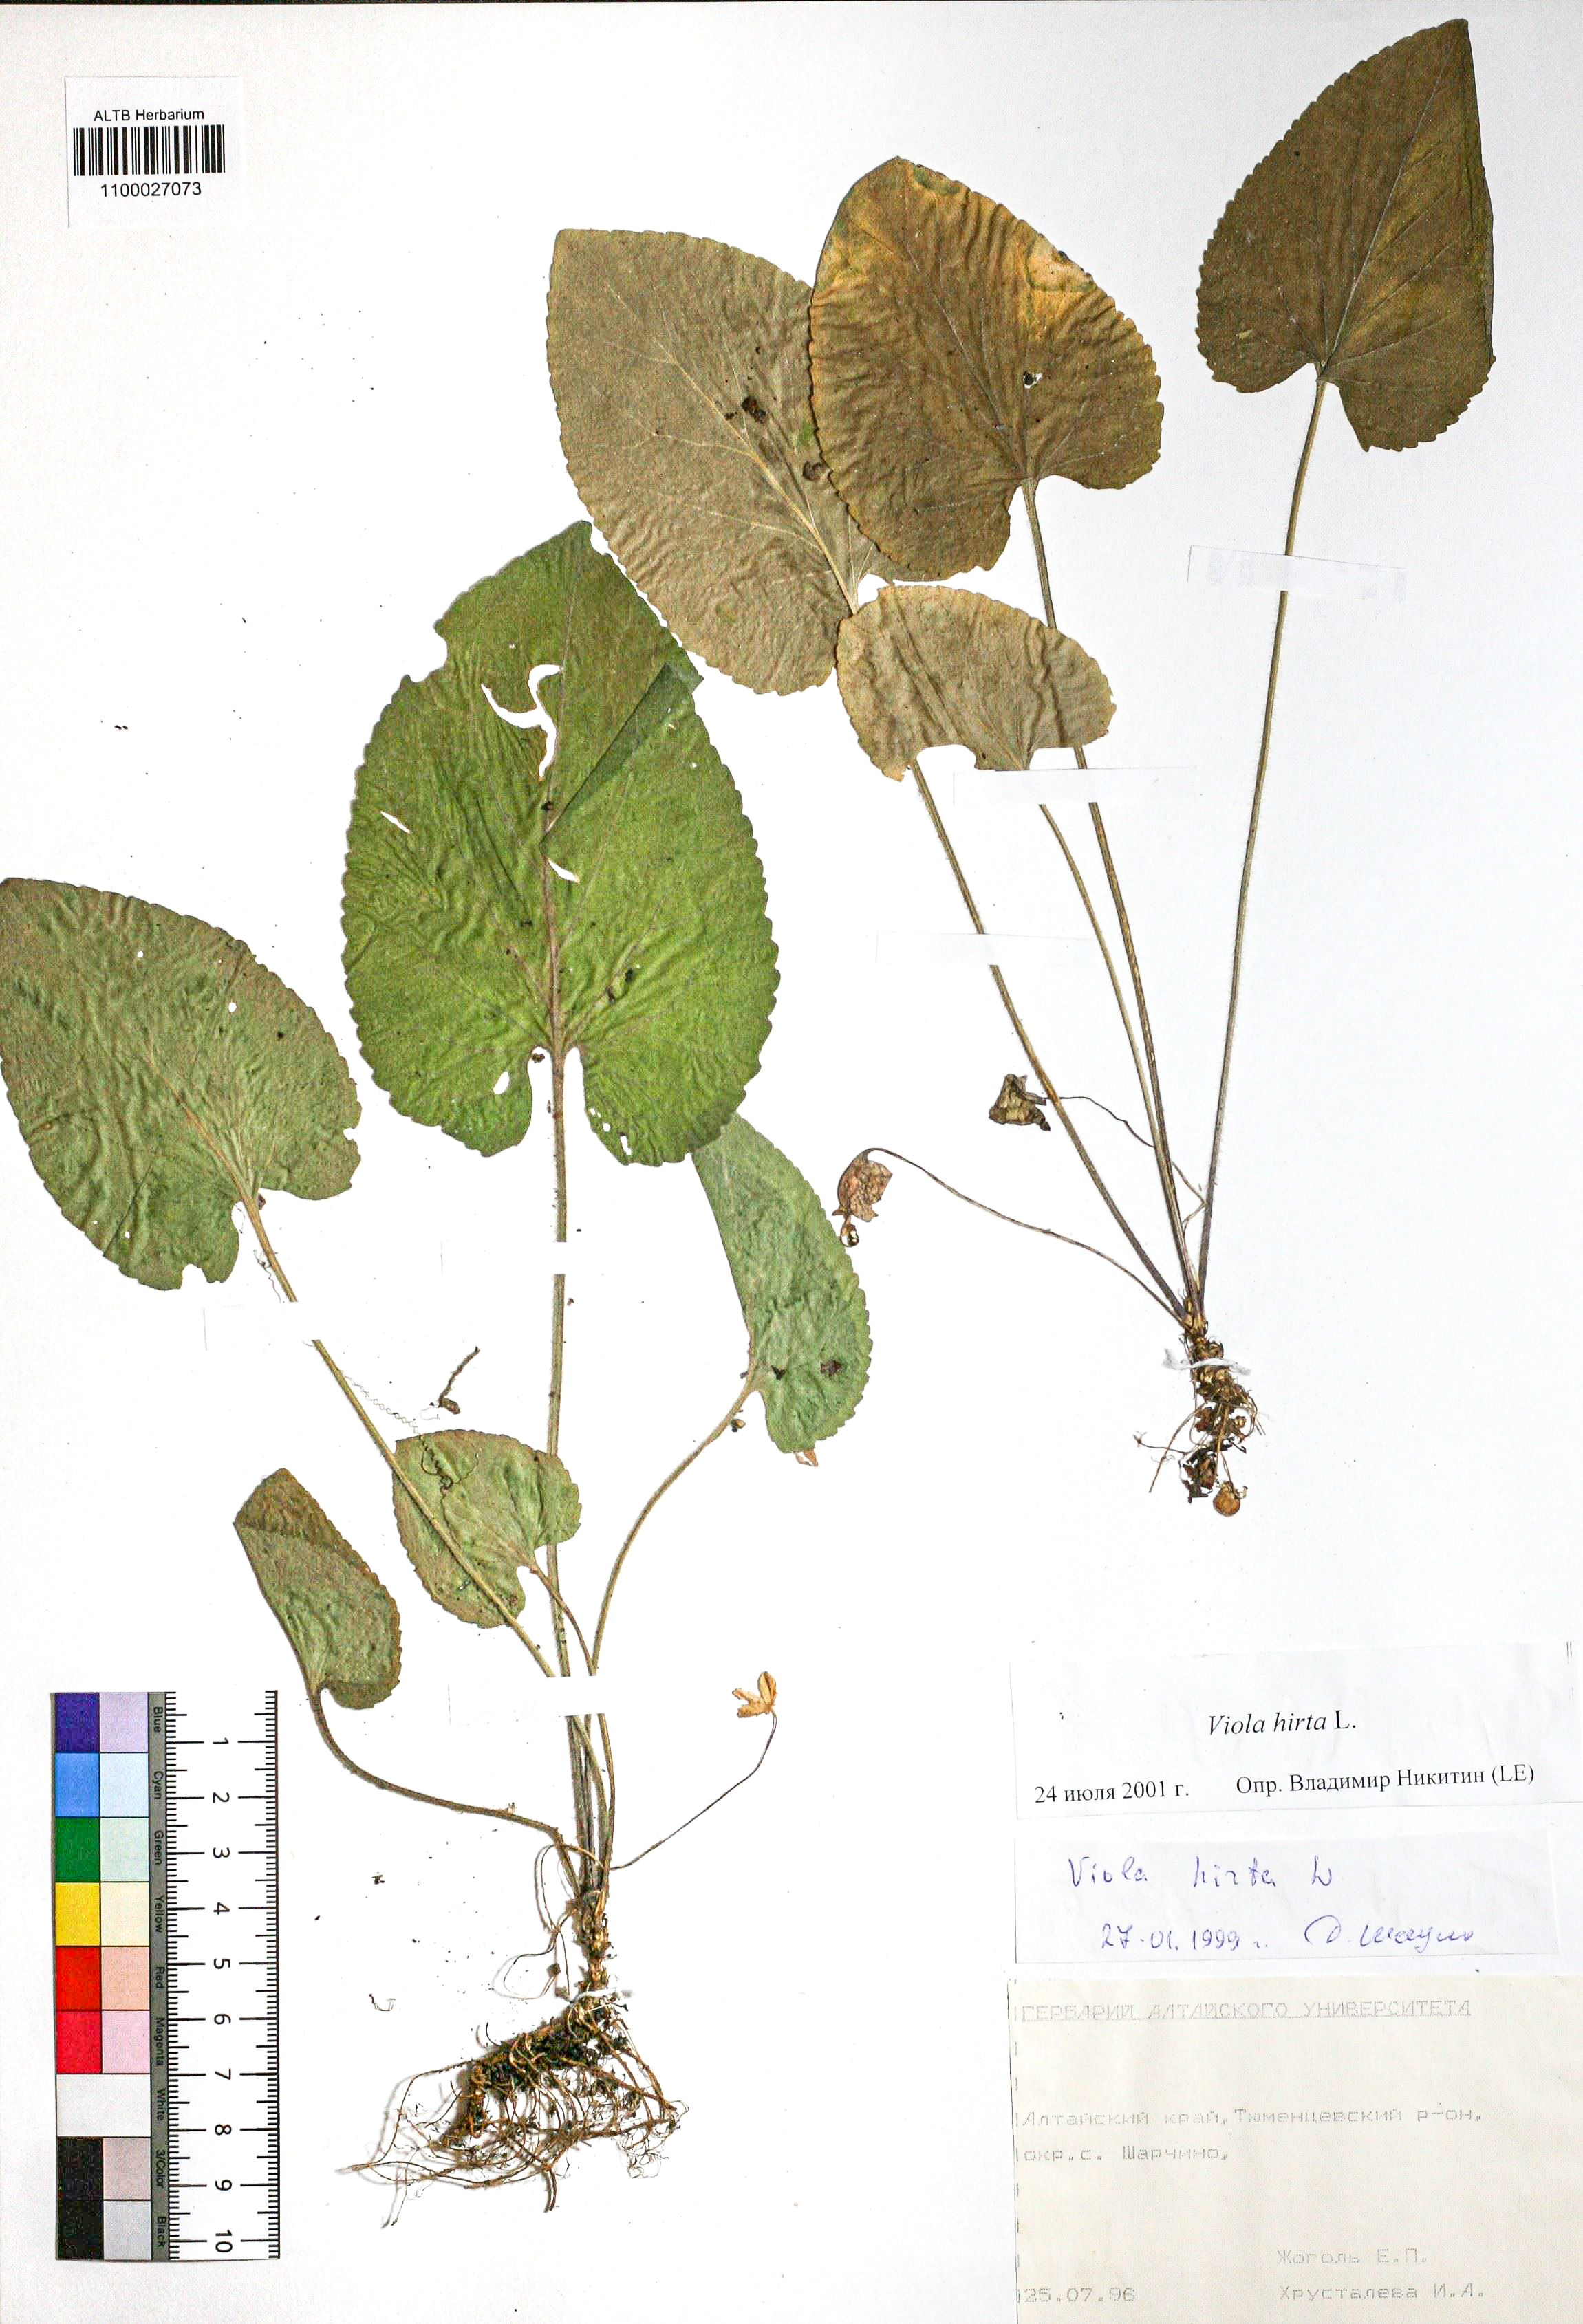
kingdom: Plantae
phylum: Tracheophyta
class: Magnoliopsida
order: Malpighiales
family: Violaceae
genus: Viola
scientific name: Viola hirta
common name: Hairy violet
